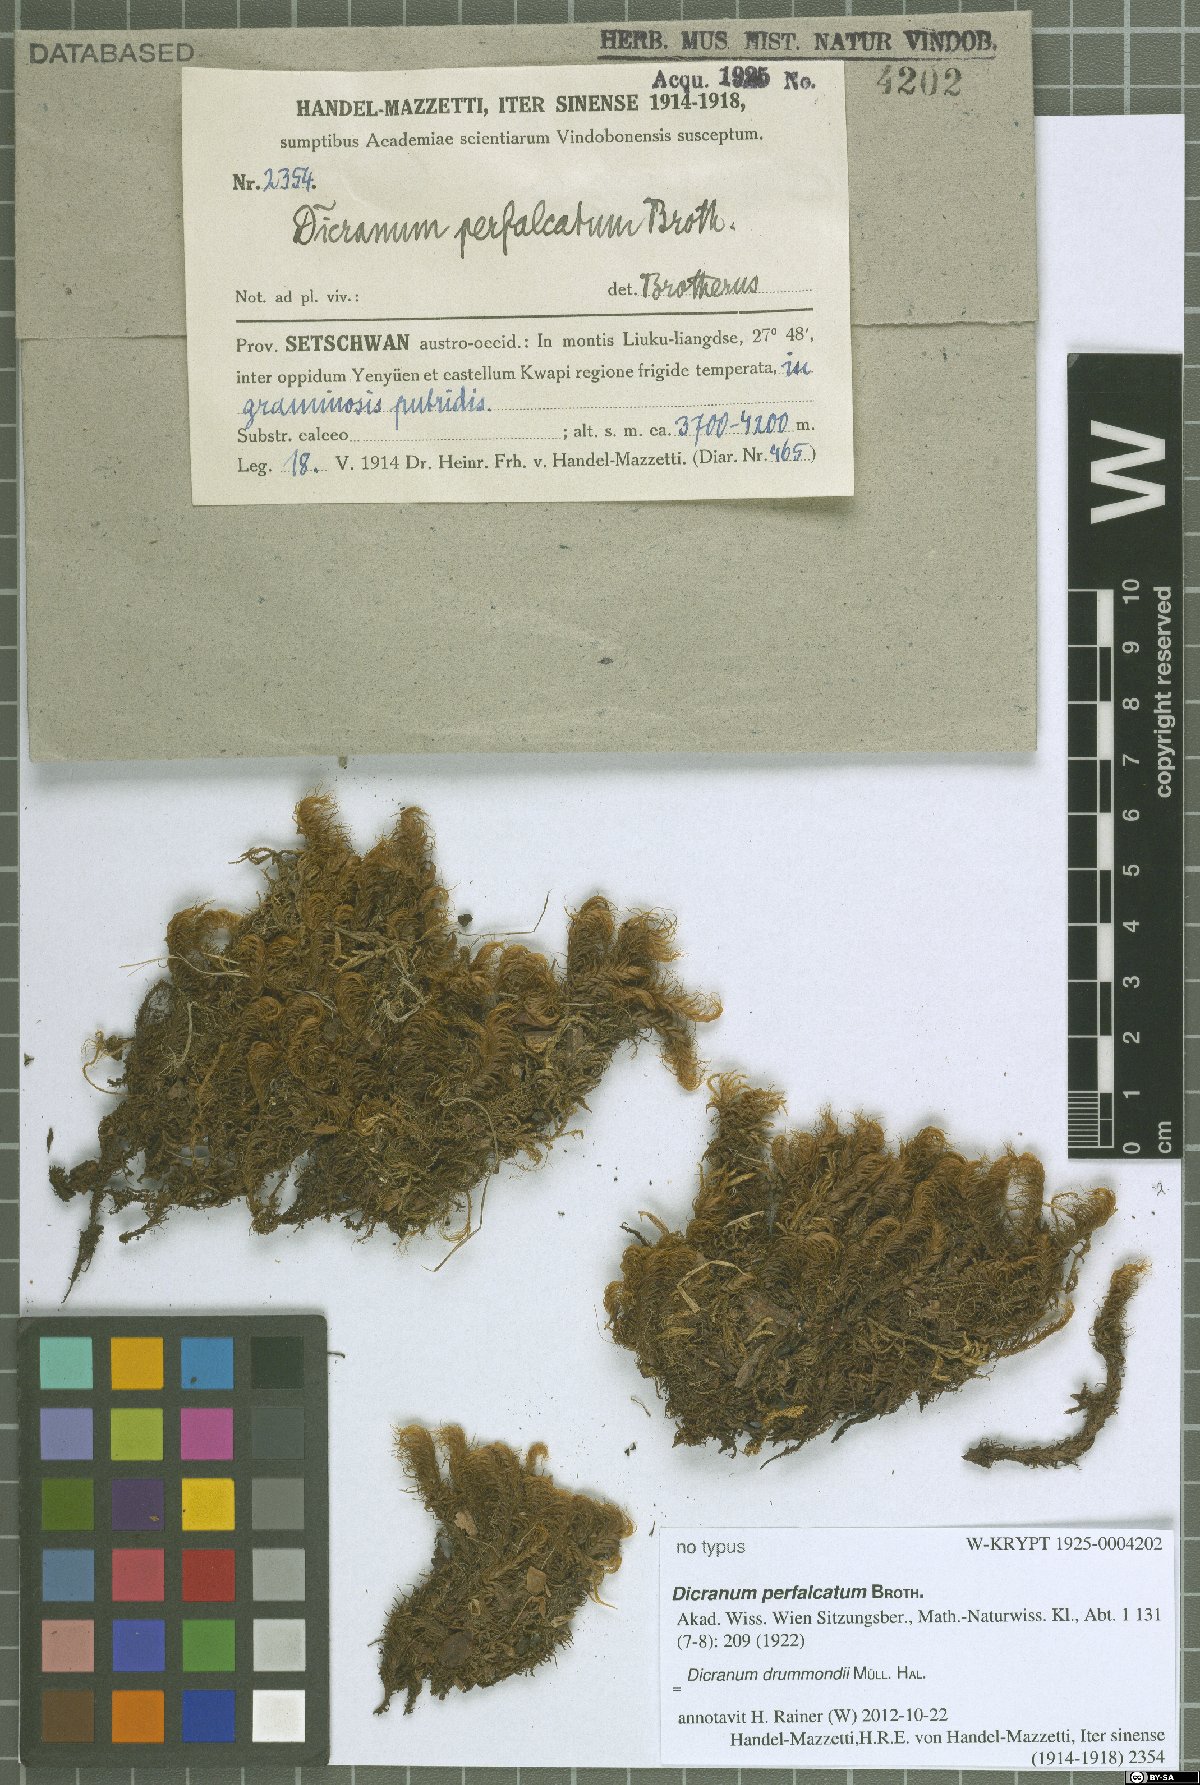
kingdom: Plantae
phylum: Bryophyta
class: Bryopsida
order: Dicranales
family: Dicranaceae
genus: Dicranum
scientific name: Dicranum drummondii
